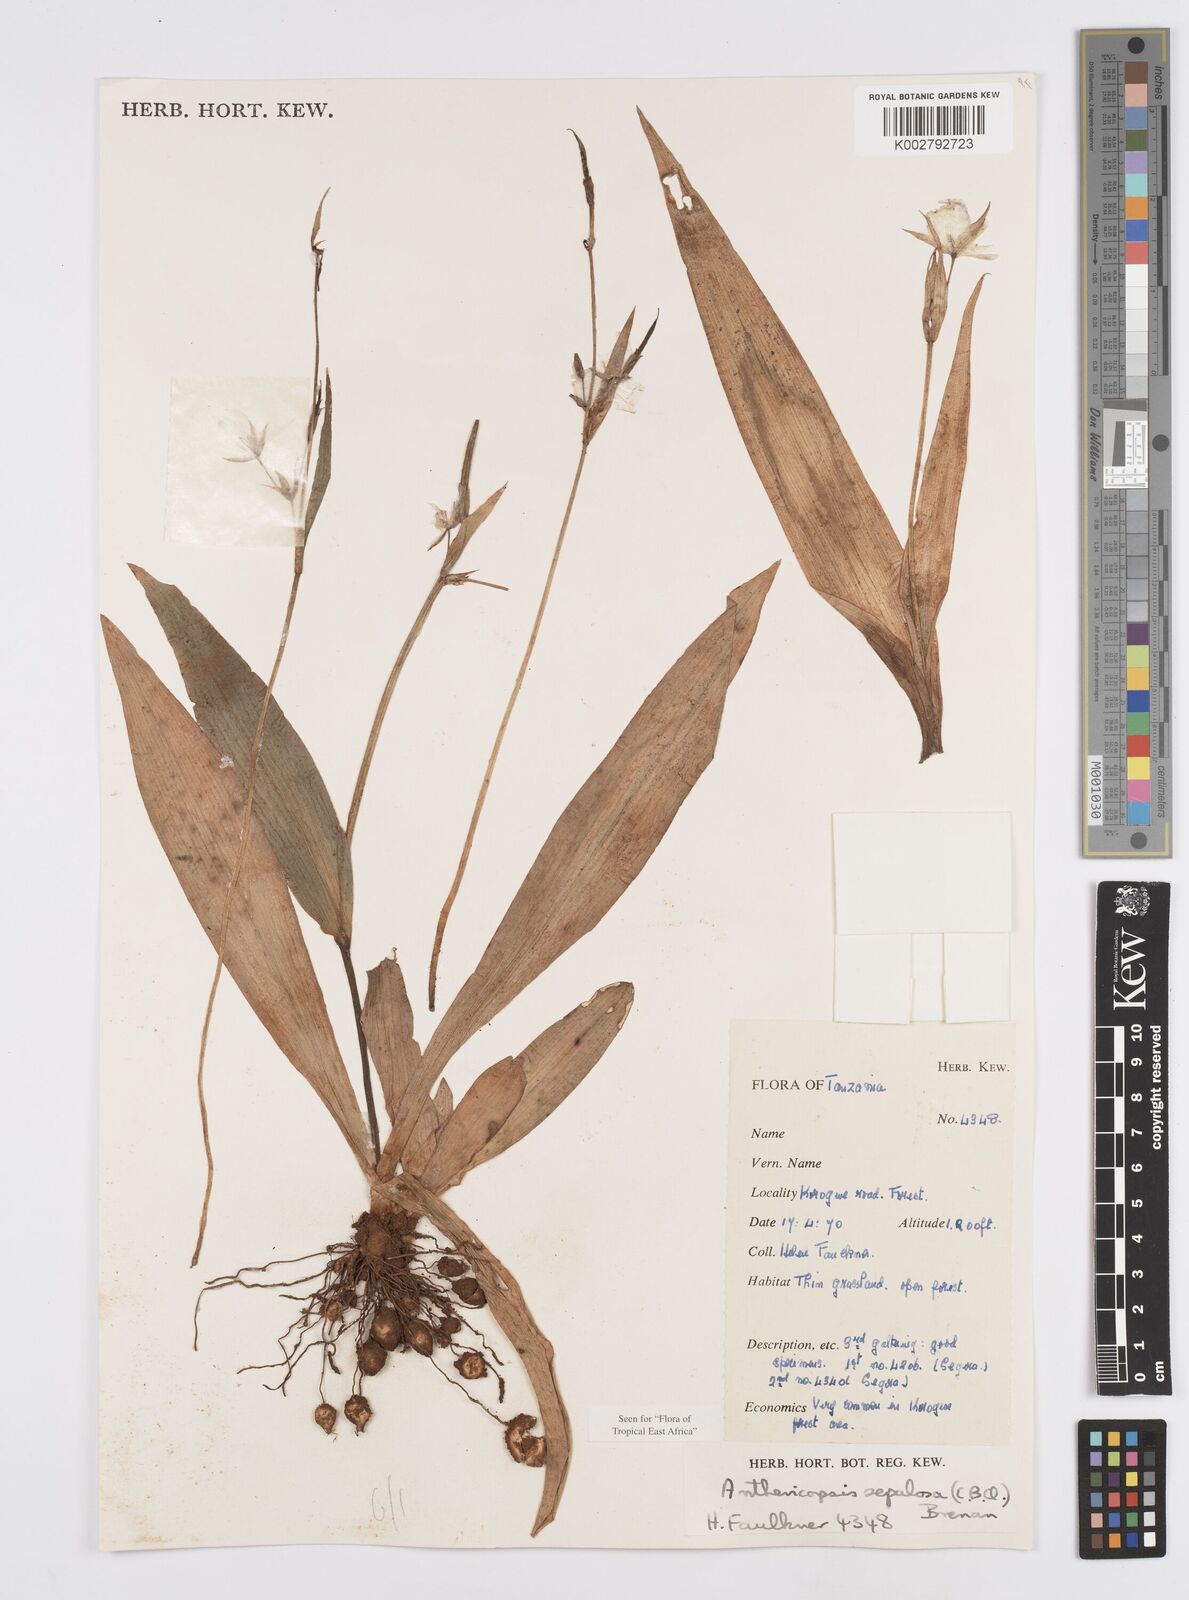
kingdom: Plantae
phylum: Tracheophyta
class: Liliopsida
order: Commelinales
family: Commelinaceae
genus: Anthericopsis
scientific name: Anthericopsis sepalosa
